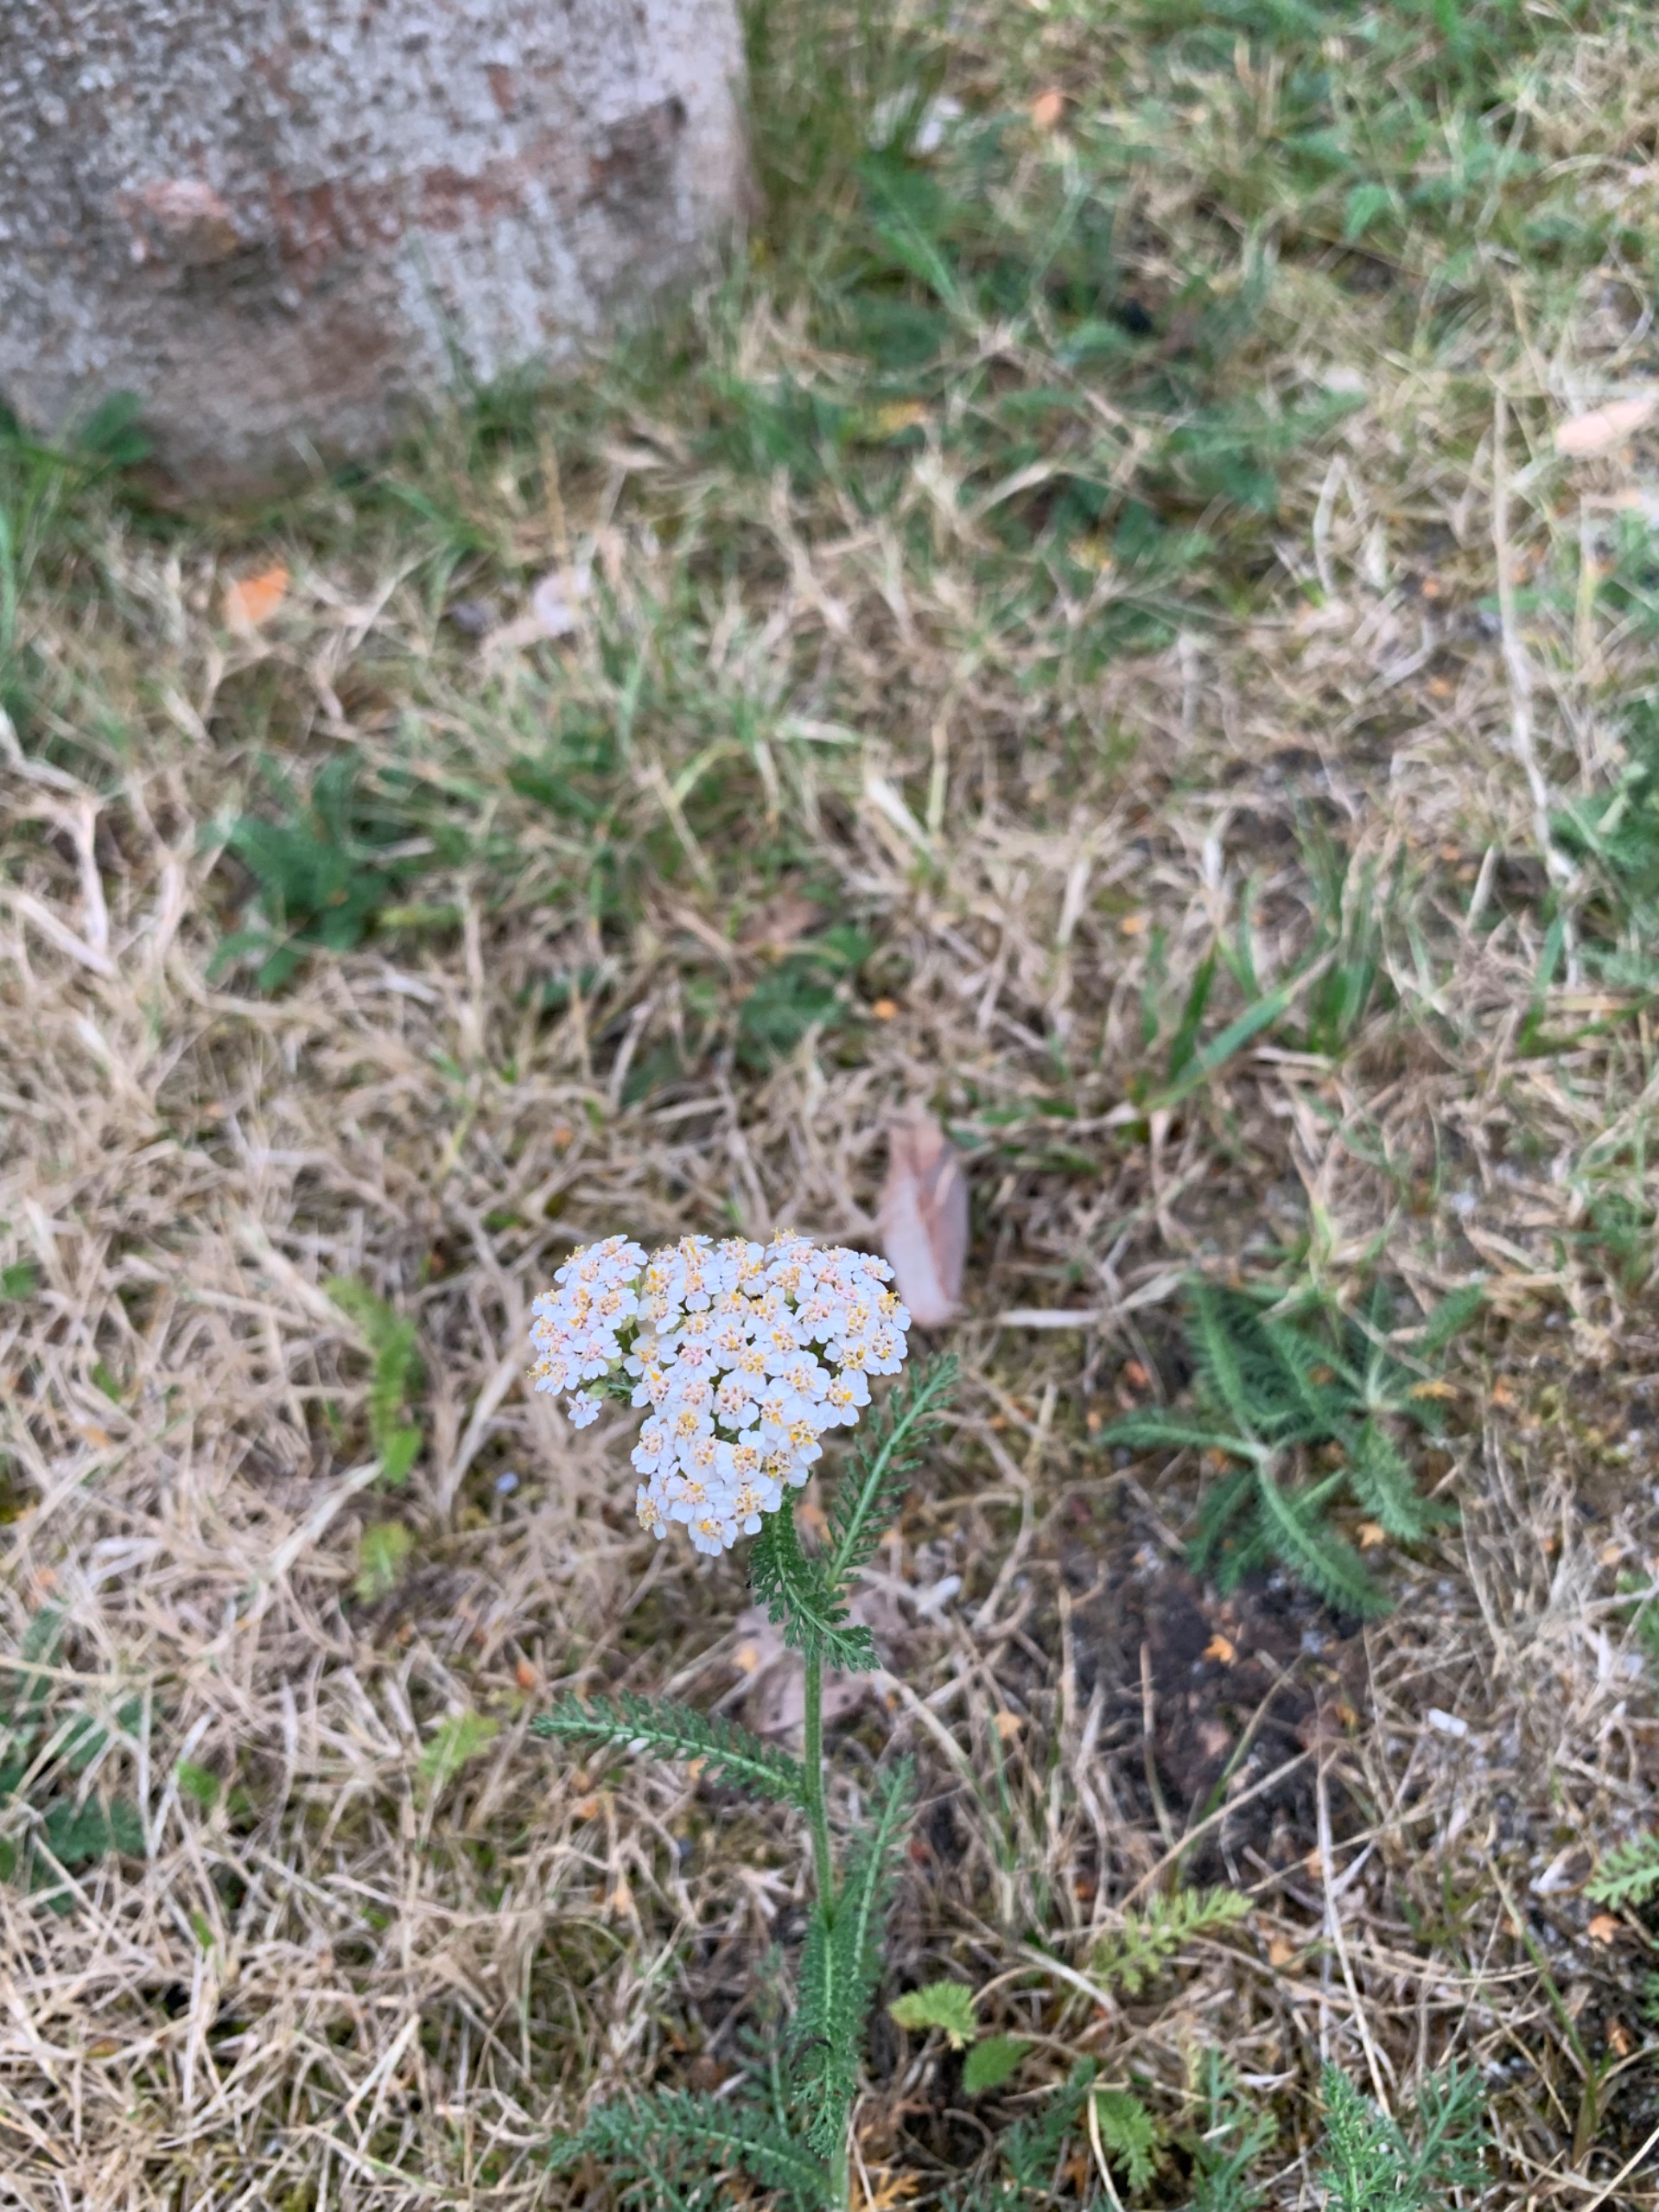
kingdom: Plantae
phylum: Tracheophyta
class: Magnoliopsida
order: Asterales
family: Asteraceae
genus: Achillea
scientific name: Achillea millefolium
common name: Almindelig røllike
